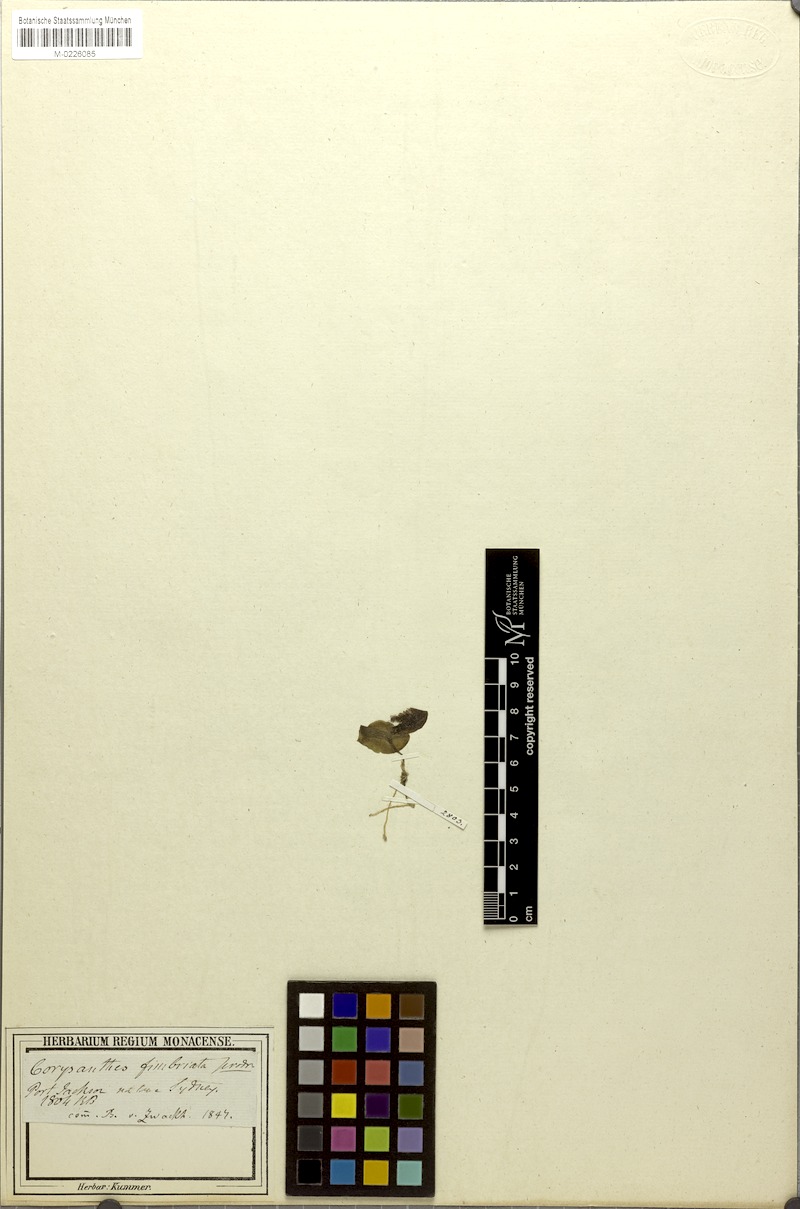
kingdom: Plantae
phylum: Tracheophyta
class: Liliopsida
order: Asparagales
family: Orchidaceae
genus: Corybas
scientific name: Corybas fimbriatus
